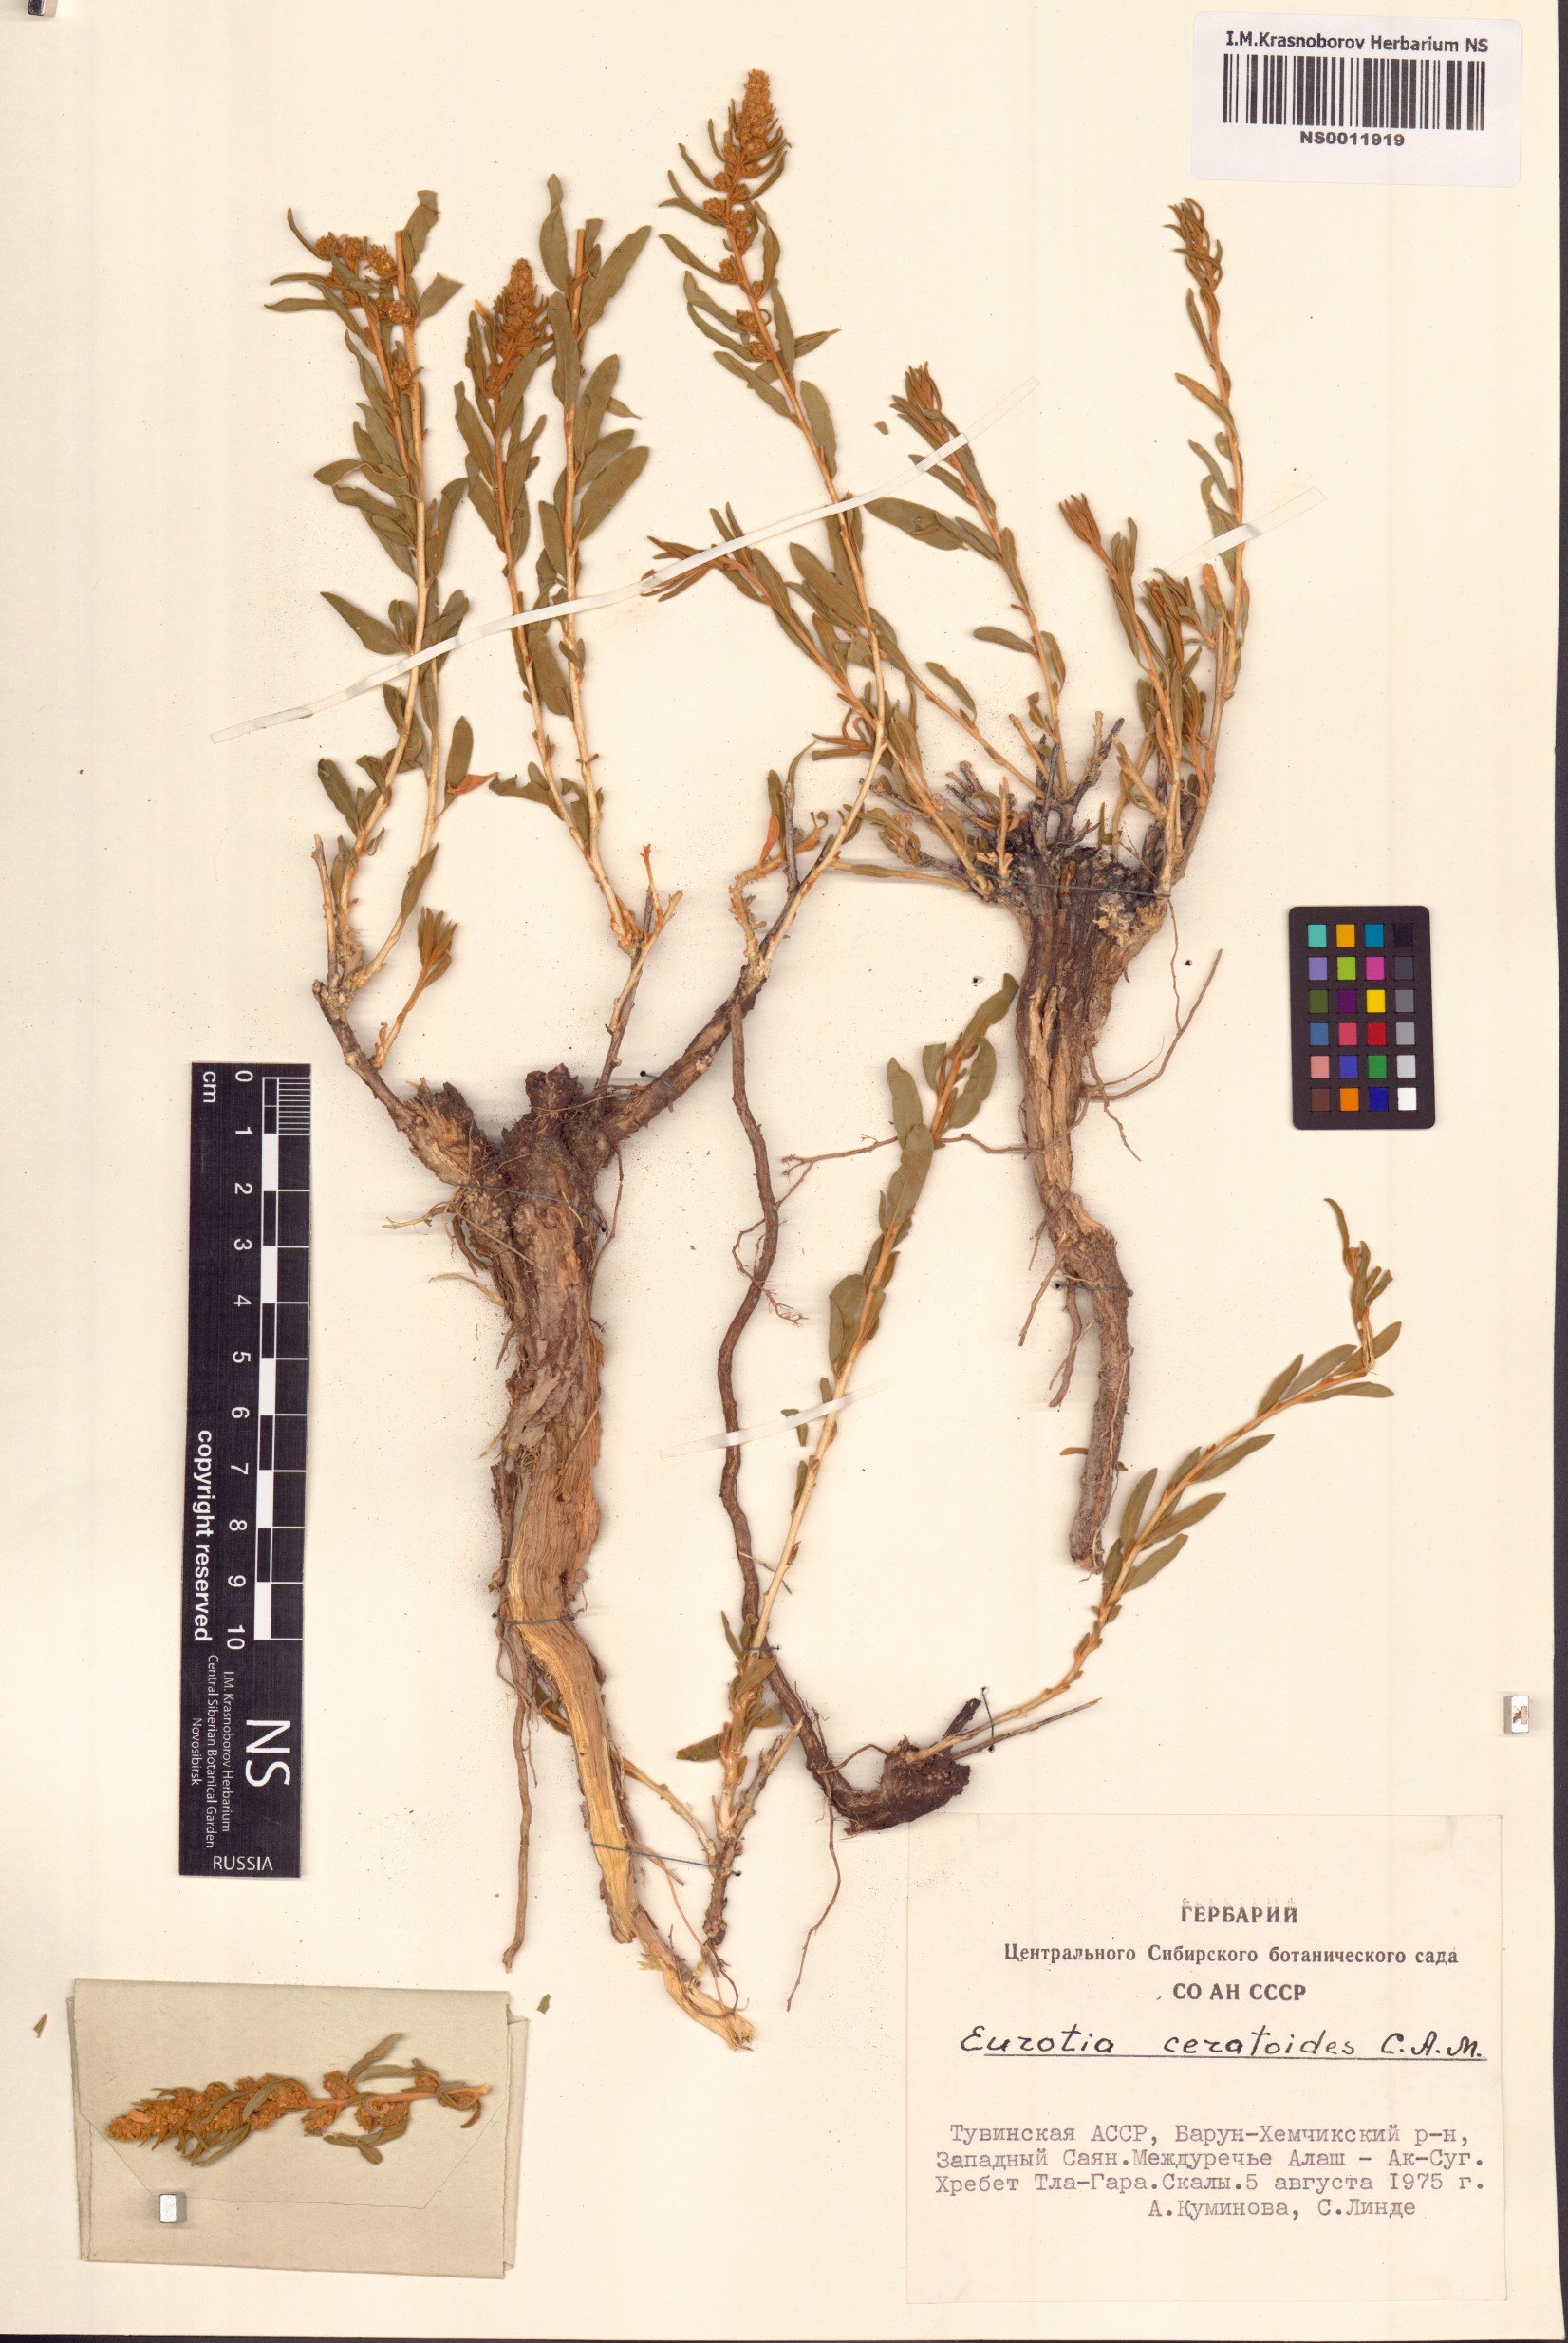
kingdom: Plantae
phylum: Tracheophyta
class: Magnoliopsida
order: Caryophyllales
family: Amaranthaceae
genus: Krascheninnikovia
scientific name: Krascheninnikovia ceratoides
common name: Pamirian winterfat
